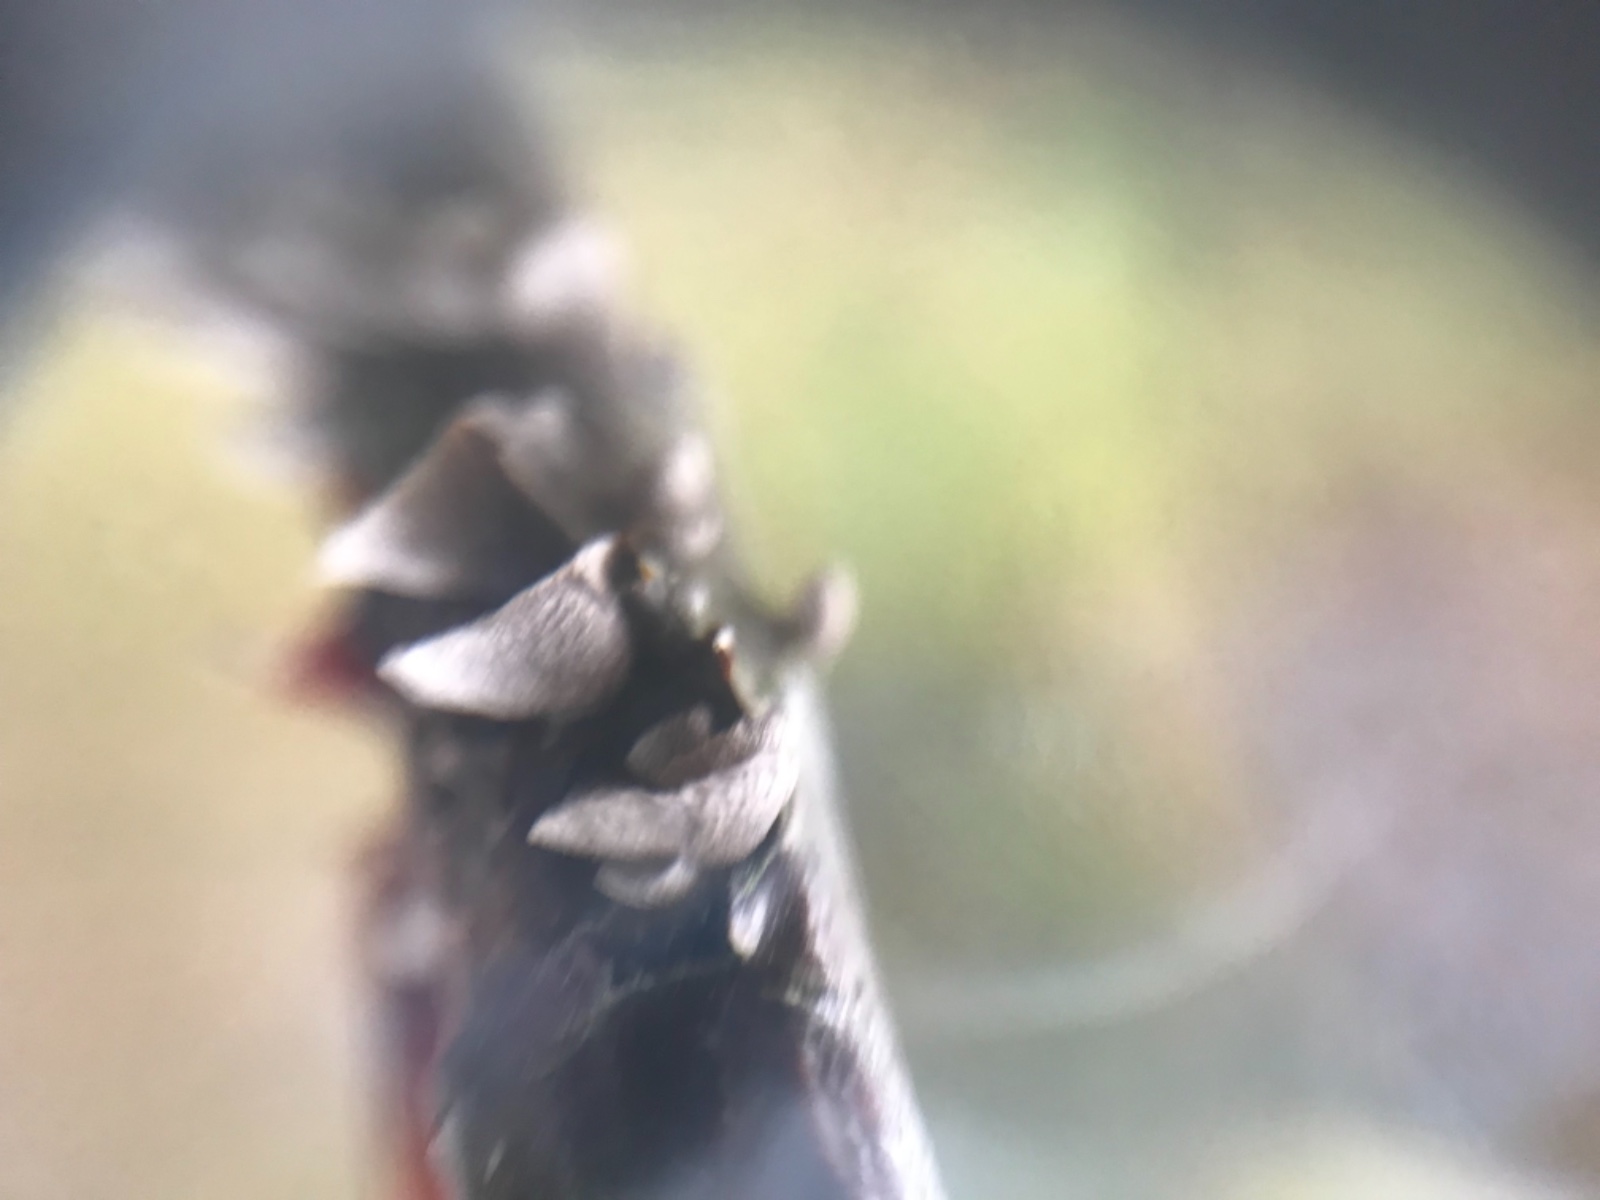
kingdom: Fungi
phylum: Basidiomycota
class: Agaricomycetes
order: Agaricales
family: Pleurotaceae
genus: Resupinatus
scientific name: Resupinatus trichotis
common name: mørkfiltet barkhat
